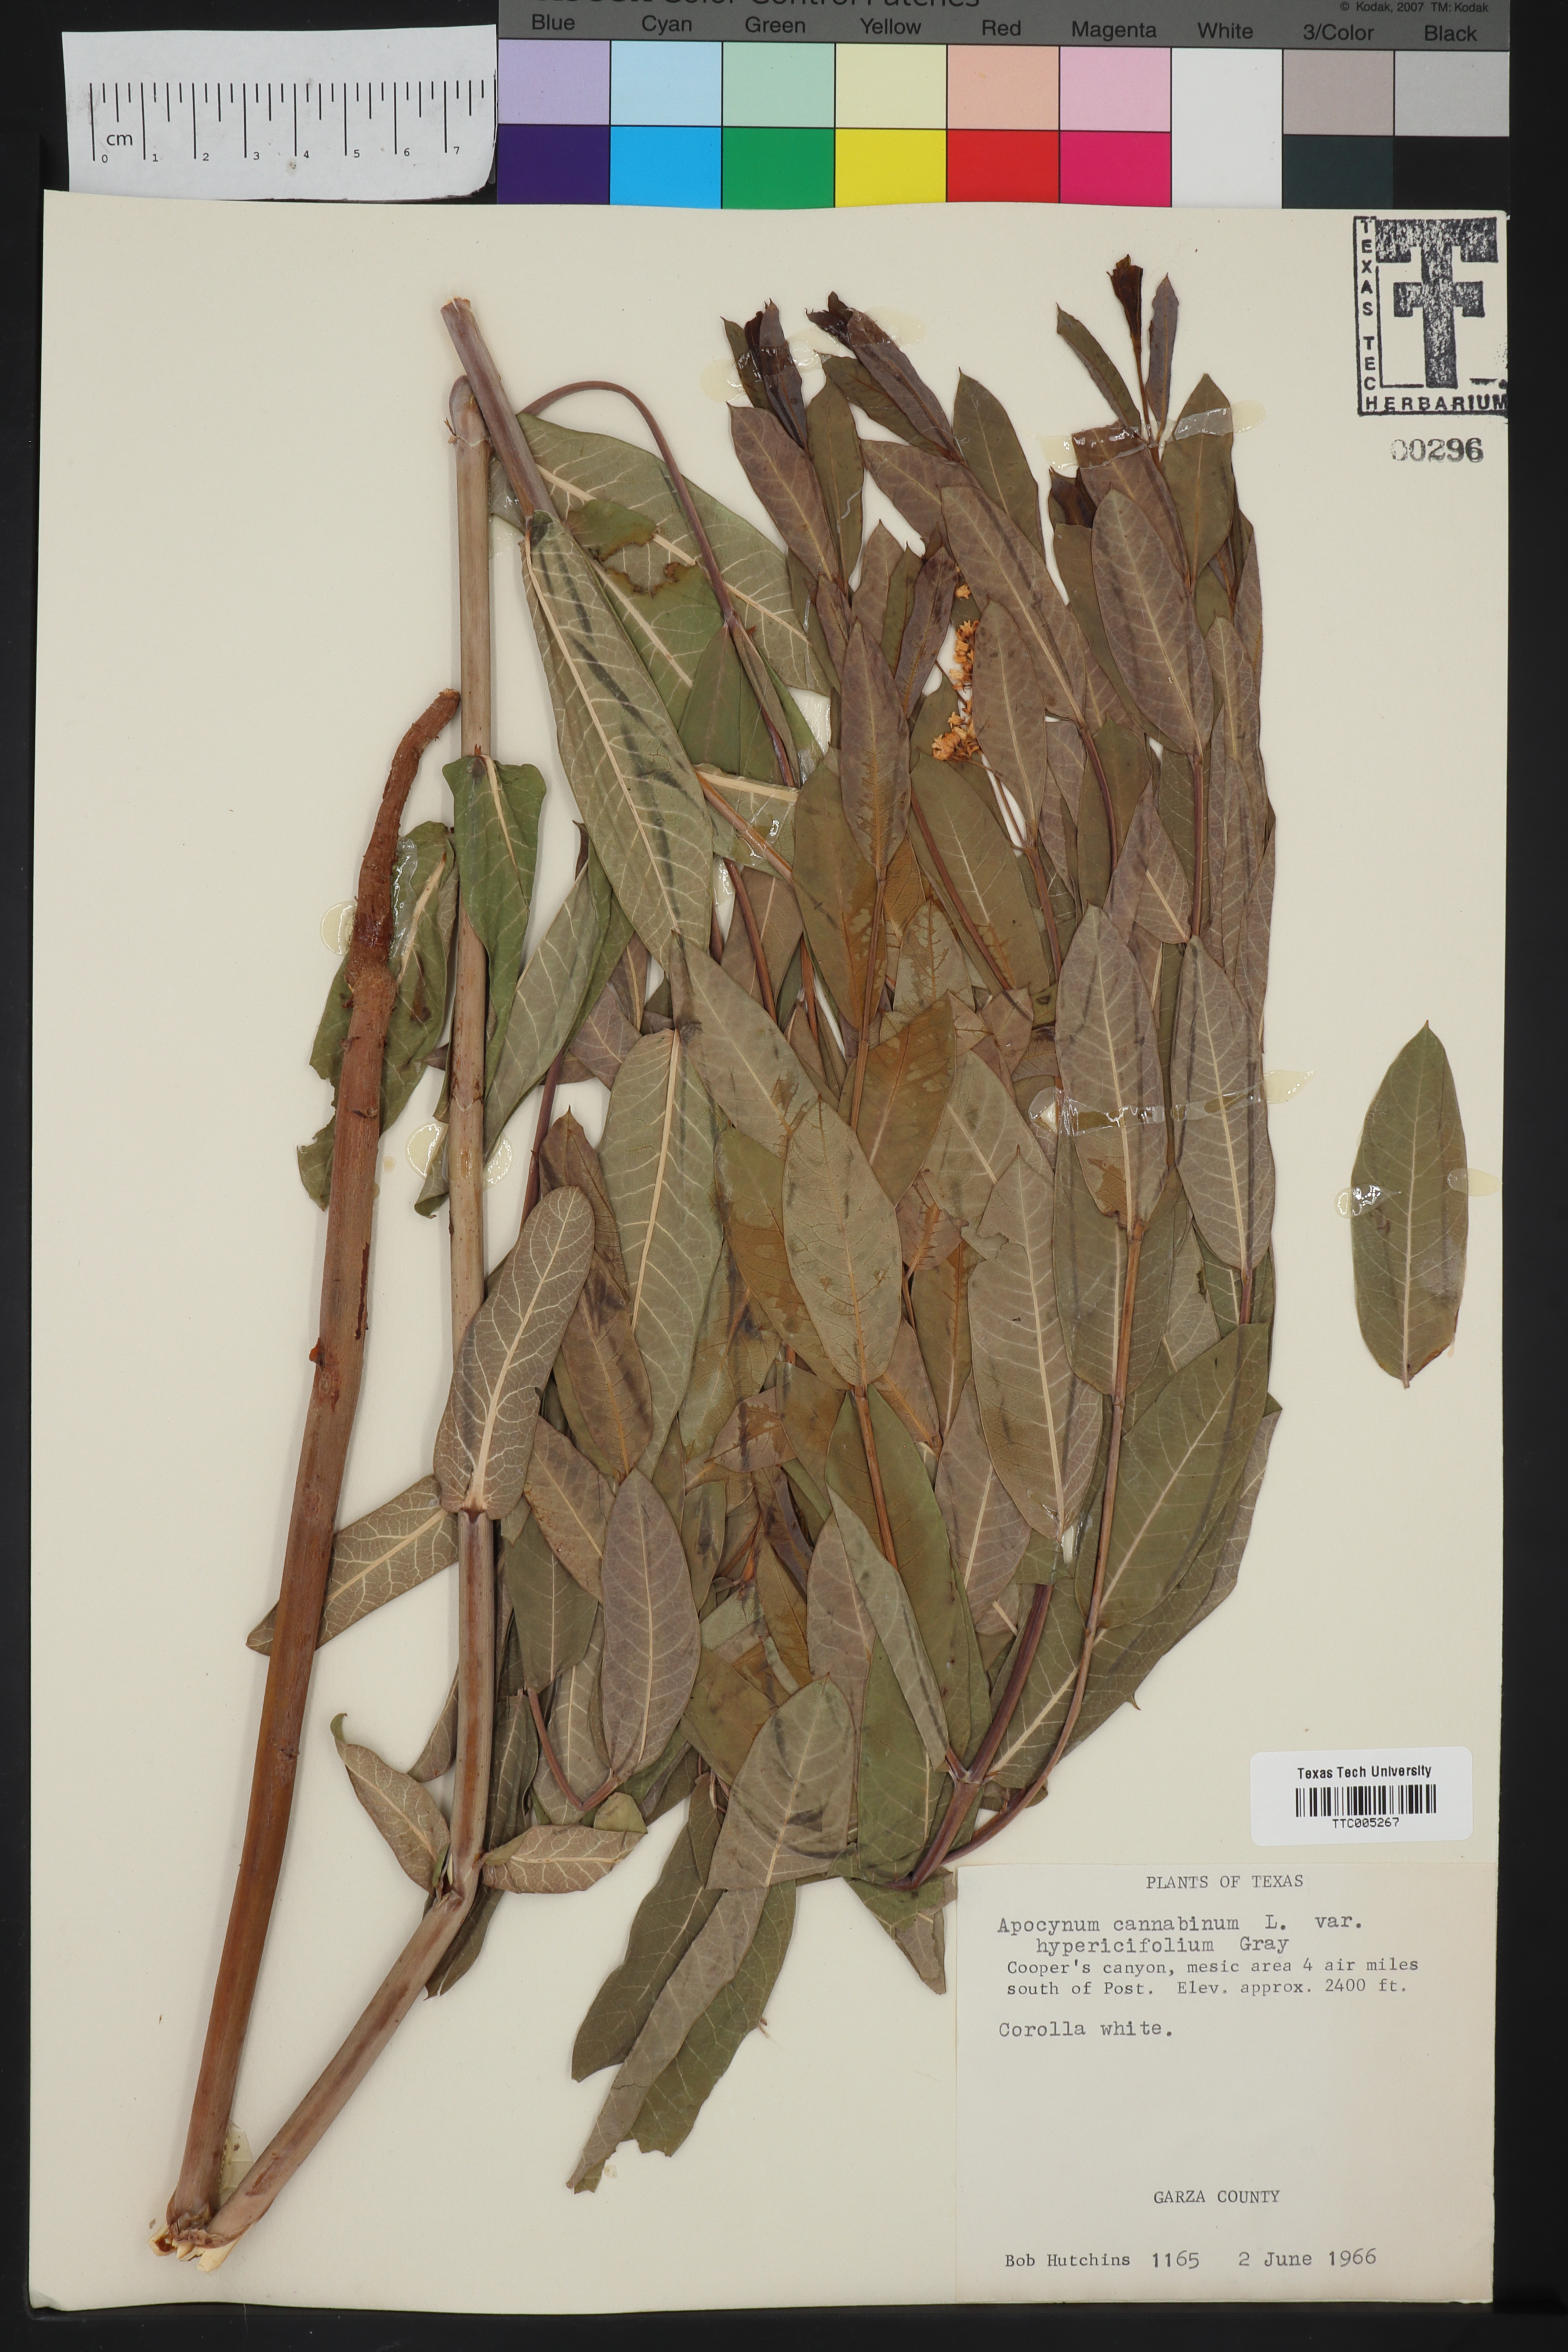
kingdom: Plantae
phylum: Tracheophyta
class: Magnoliopsida
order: Gentianales
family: Apocynaceae
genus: Apocynum
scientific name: Apocynum cannabinum
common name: Hemp dogbane
